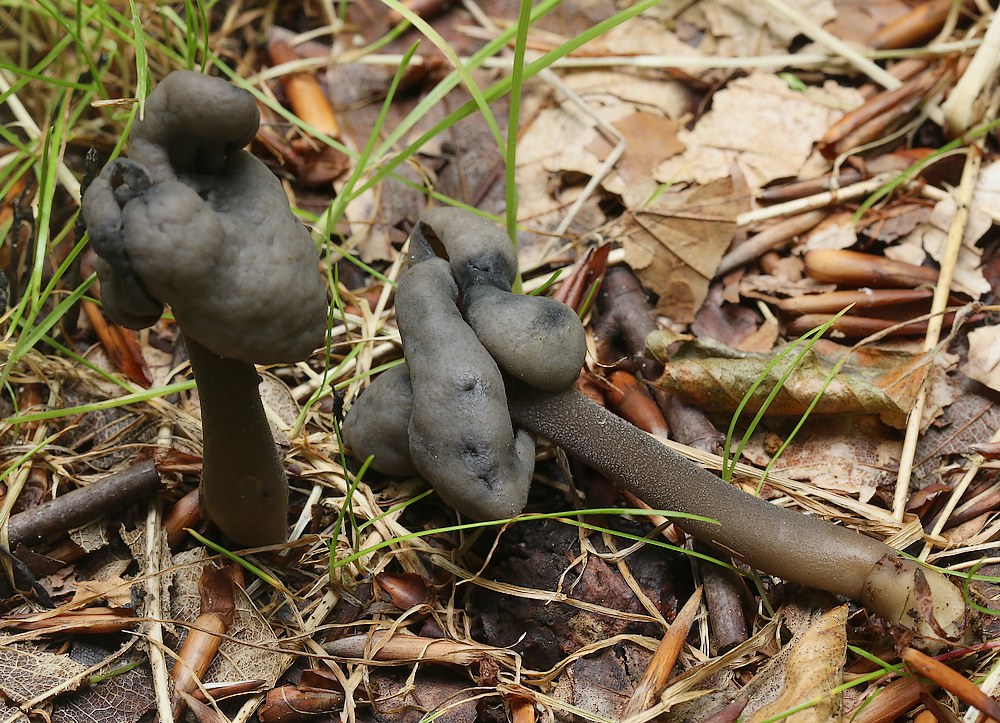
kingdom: Fungi
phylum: Ascomycota
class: Pezizomycetes
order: Pezizales
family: Helvellaceae
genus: Helvella
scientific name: Helvella atra
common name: sort foldhat
